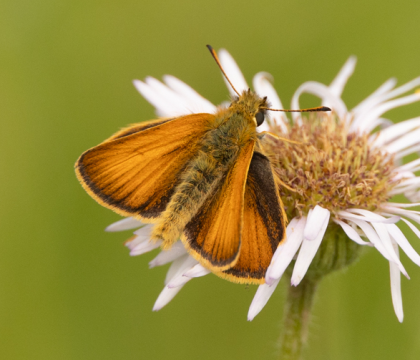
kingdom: Animalia
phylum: Arthropoda
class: Insecta
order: Lepidoptera
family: Hesperiidae
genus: Thymelicus
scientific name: Thymelicus lineola
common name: European Skipper
